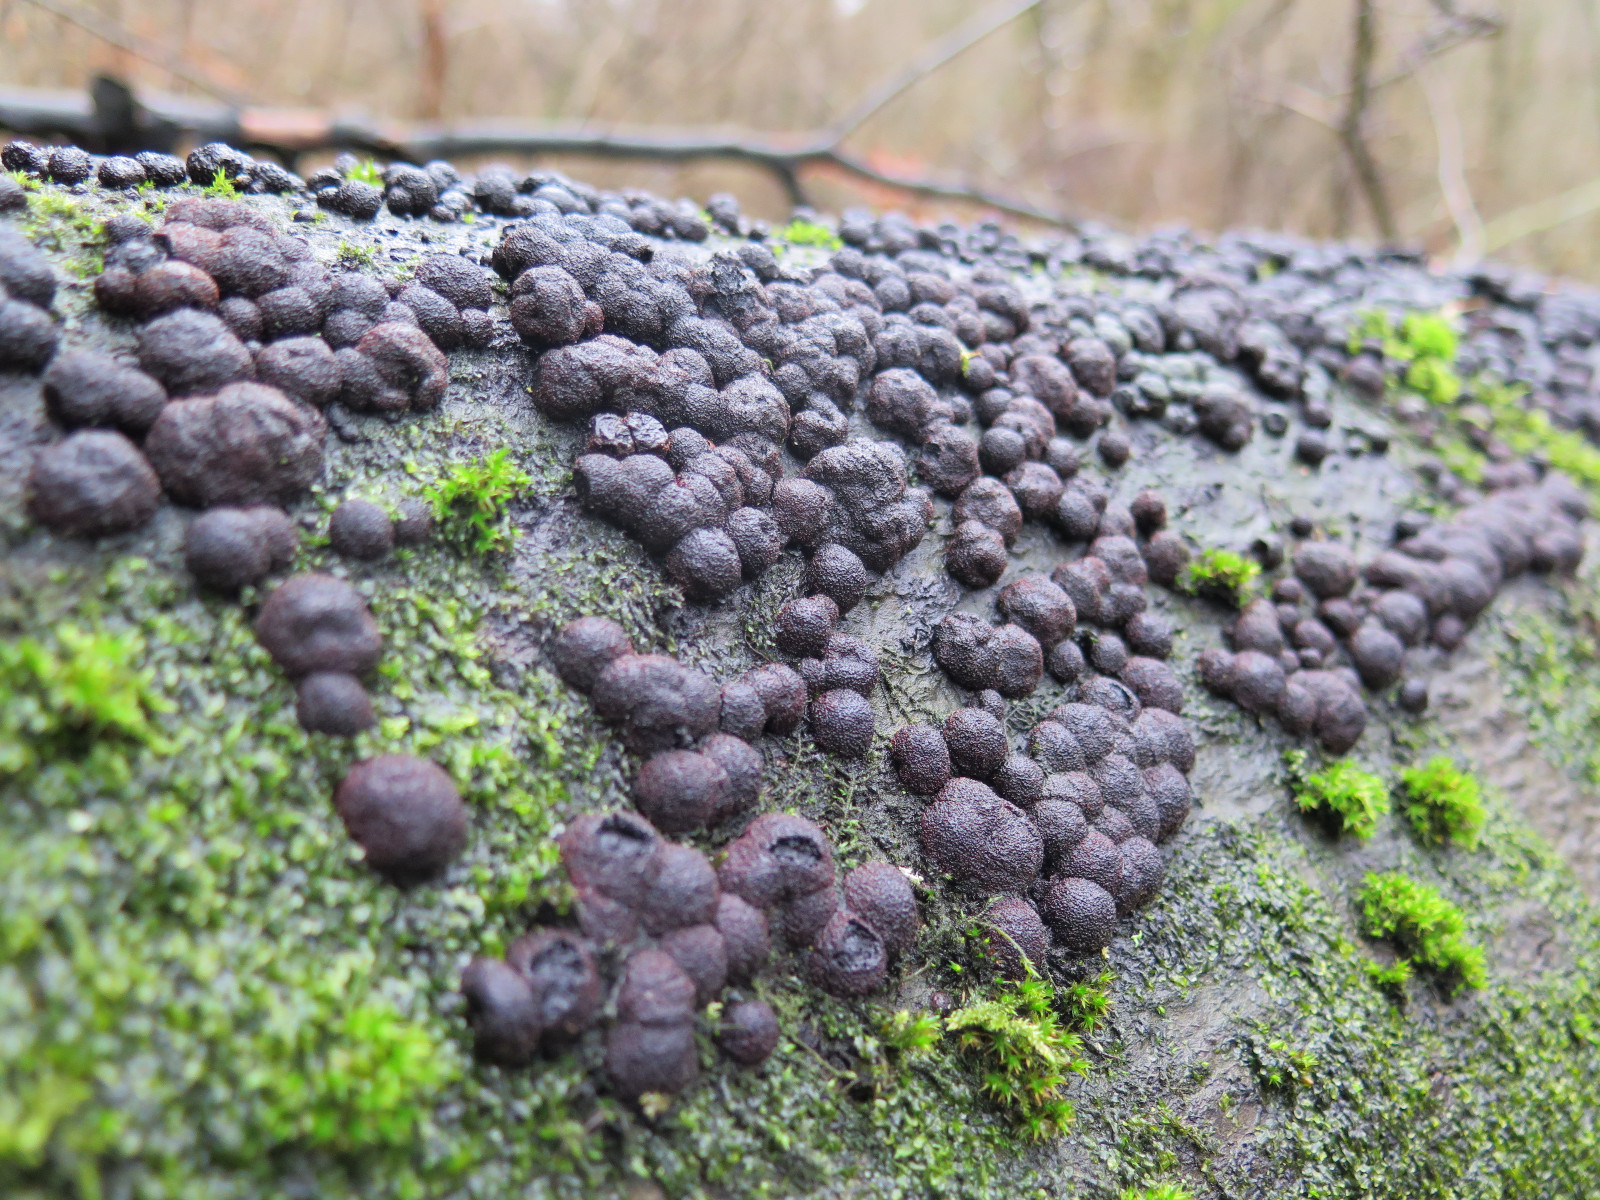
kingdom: Fungi
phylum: Ascomycota
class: Sordariomycetes
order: Xylariales
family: Hypoxylaceae
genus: Hypoxylon
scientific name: Hypoxylon fragiforme
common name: kuljordbær
